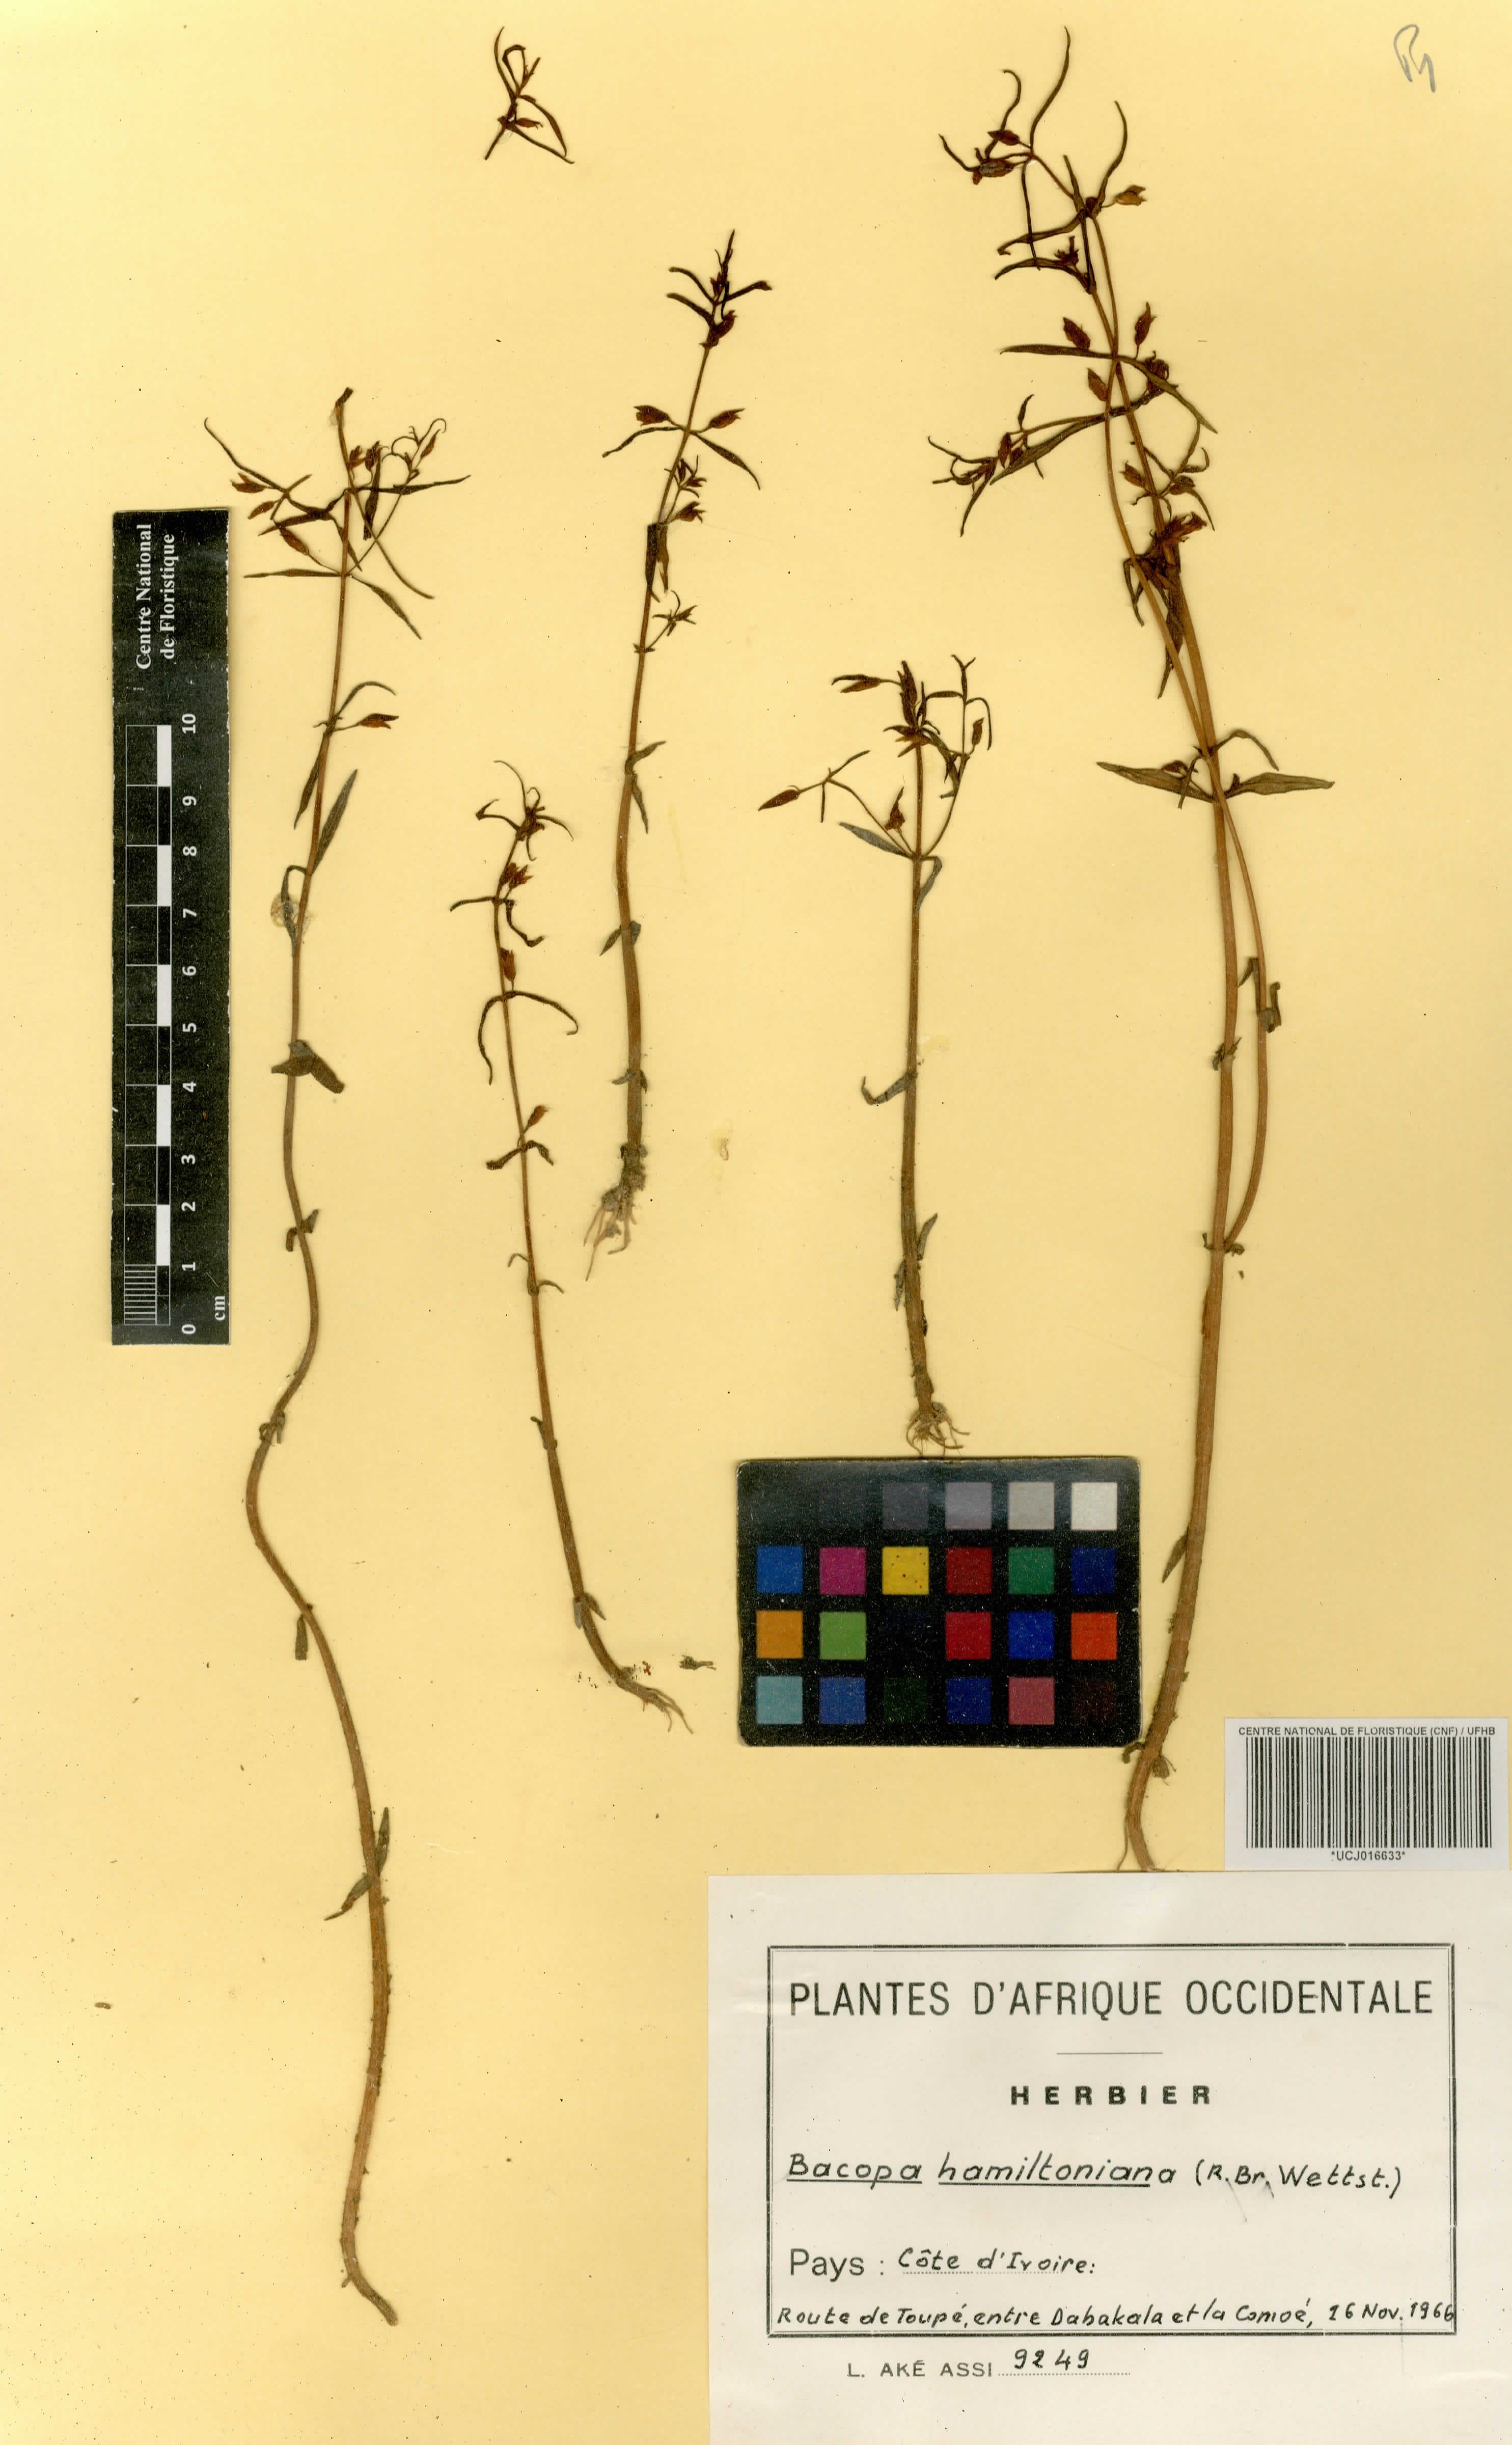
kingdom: Plantae
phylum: Tracheophyta
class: Magnoliopsida
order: Lamiales
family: Plantaginaceae
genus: Bacopa
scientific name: Bacopa hamiltoniana
